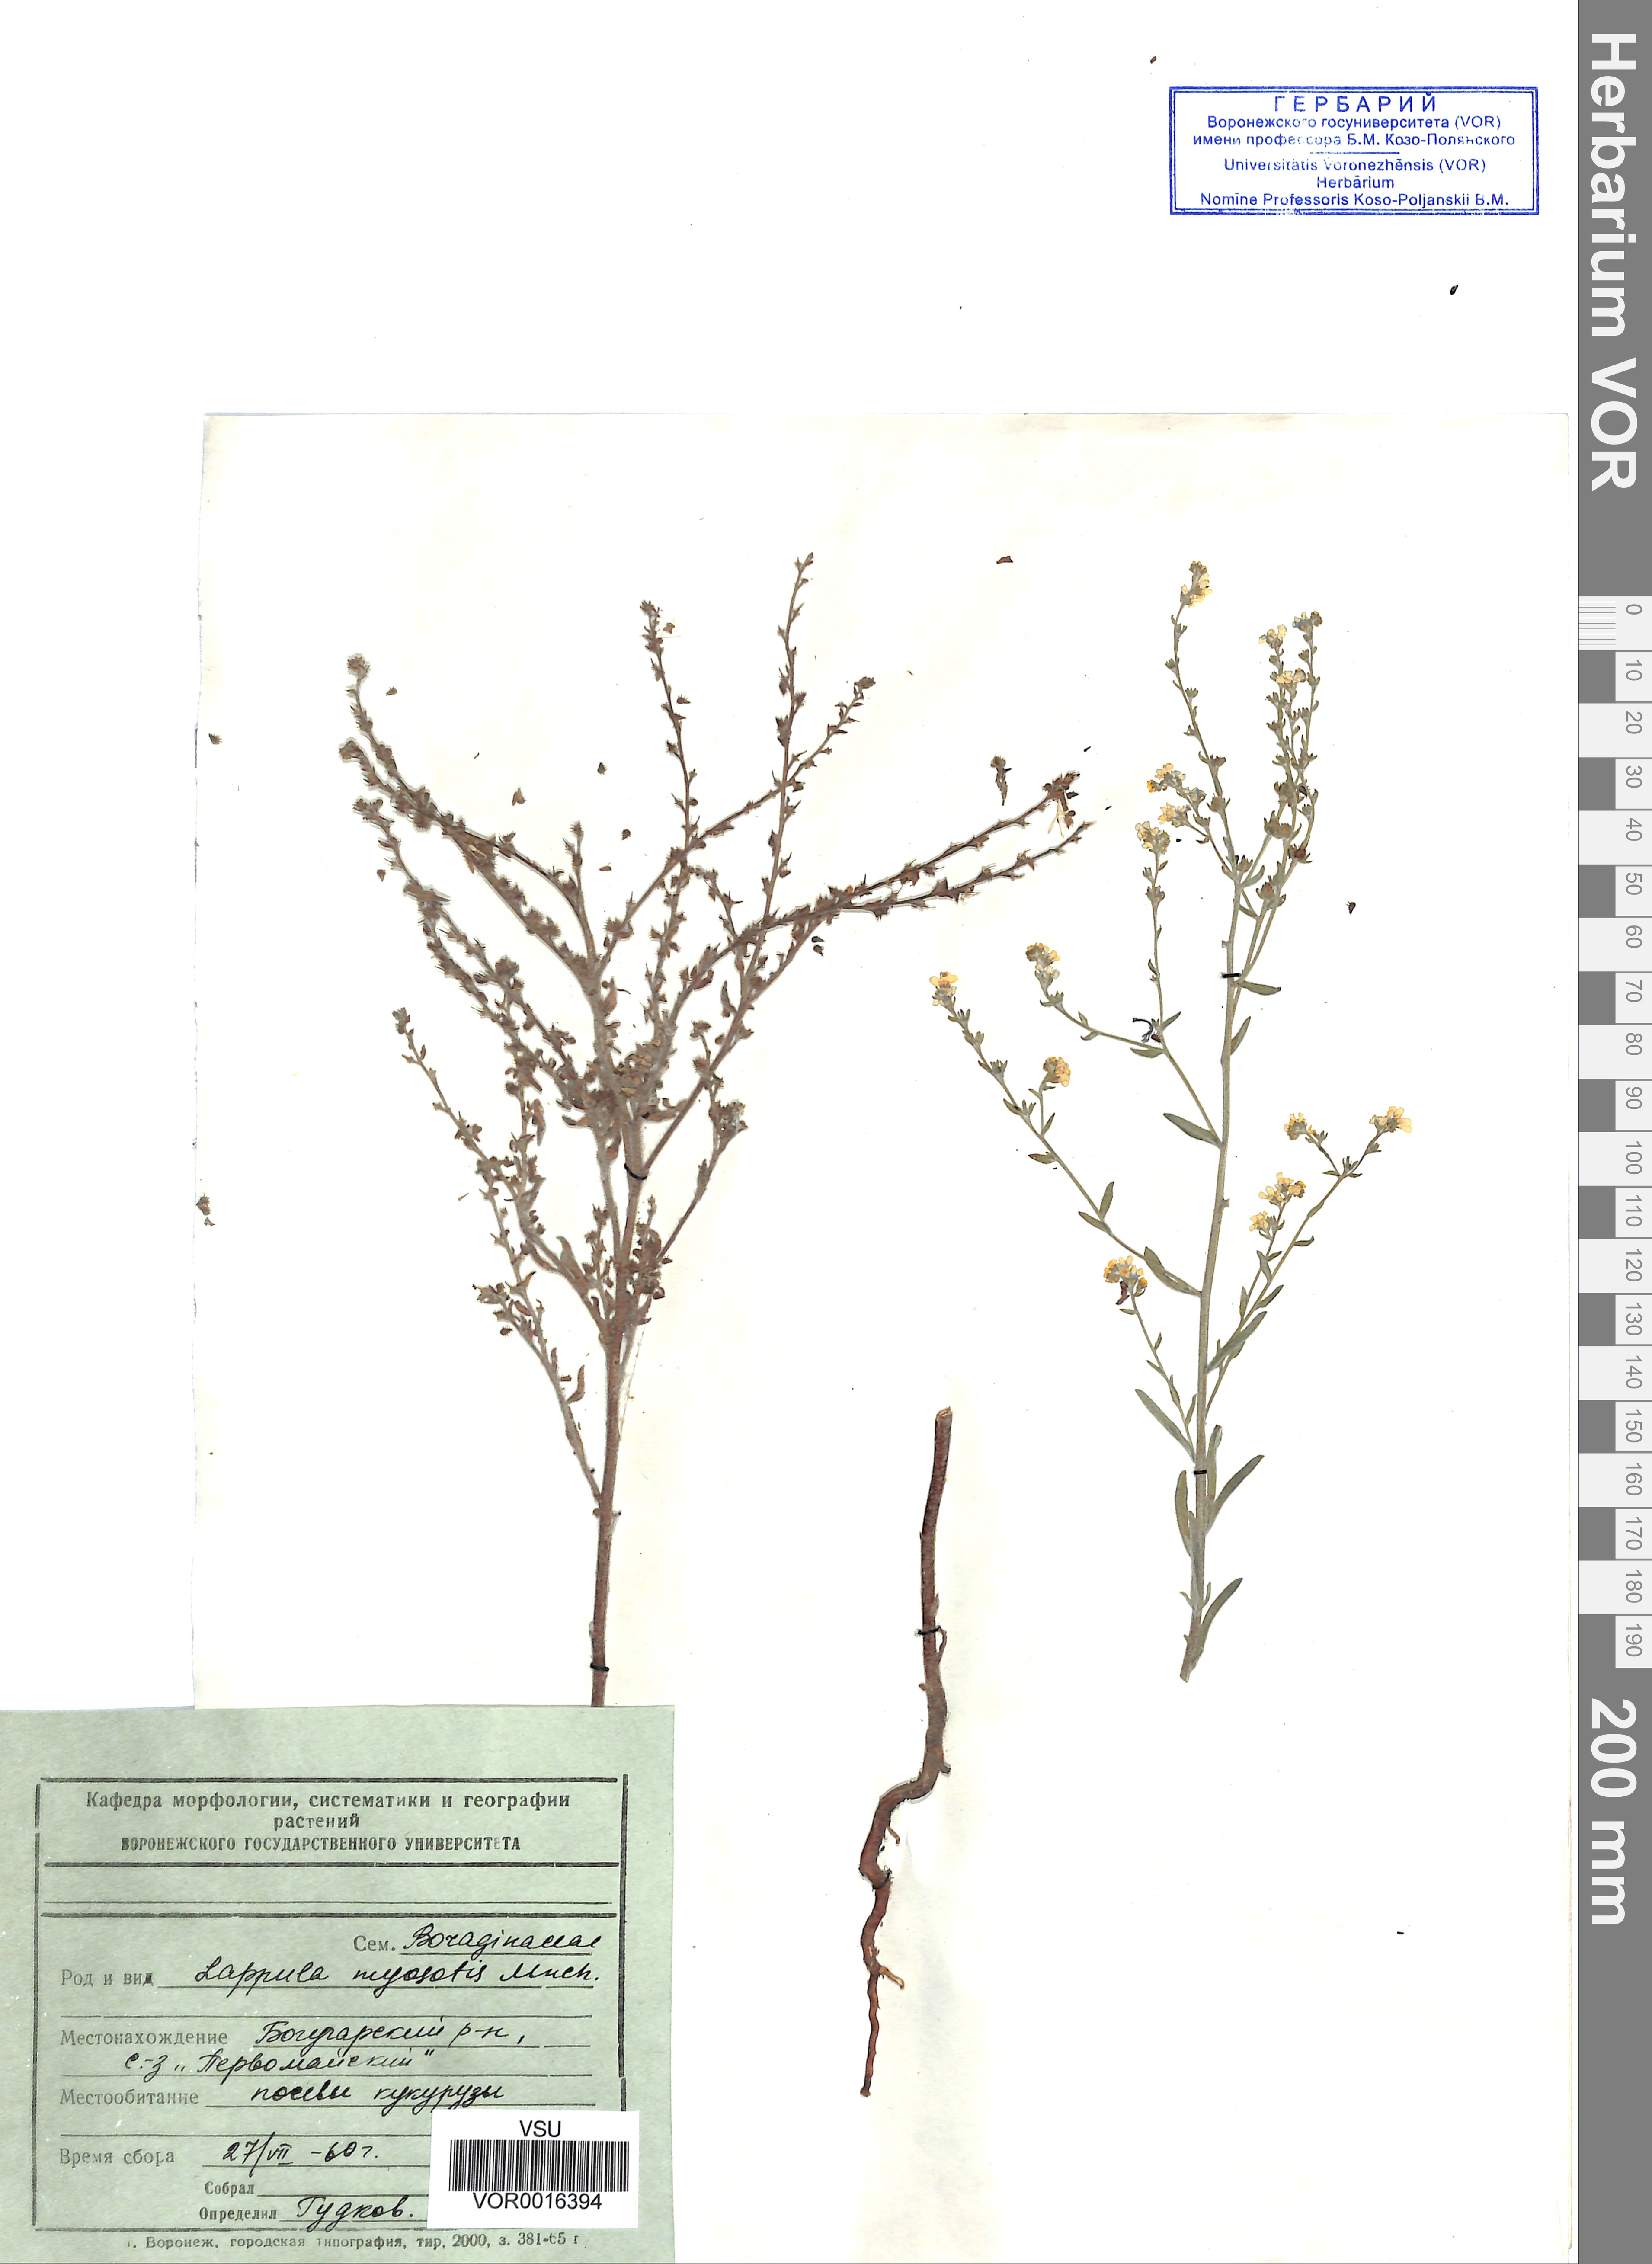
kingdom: Plantae
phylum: Tracheophyta
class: Magnoliopsida
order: Boraginales
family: Boraginaceae
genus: Lappula
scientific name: Lappula squarrosa
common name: European stickseed
